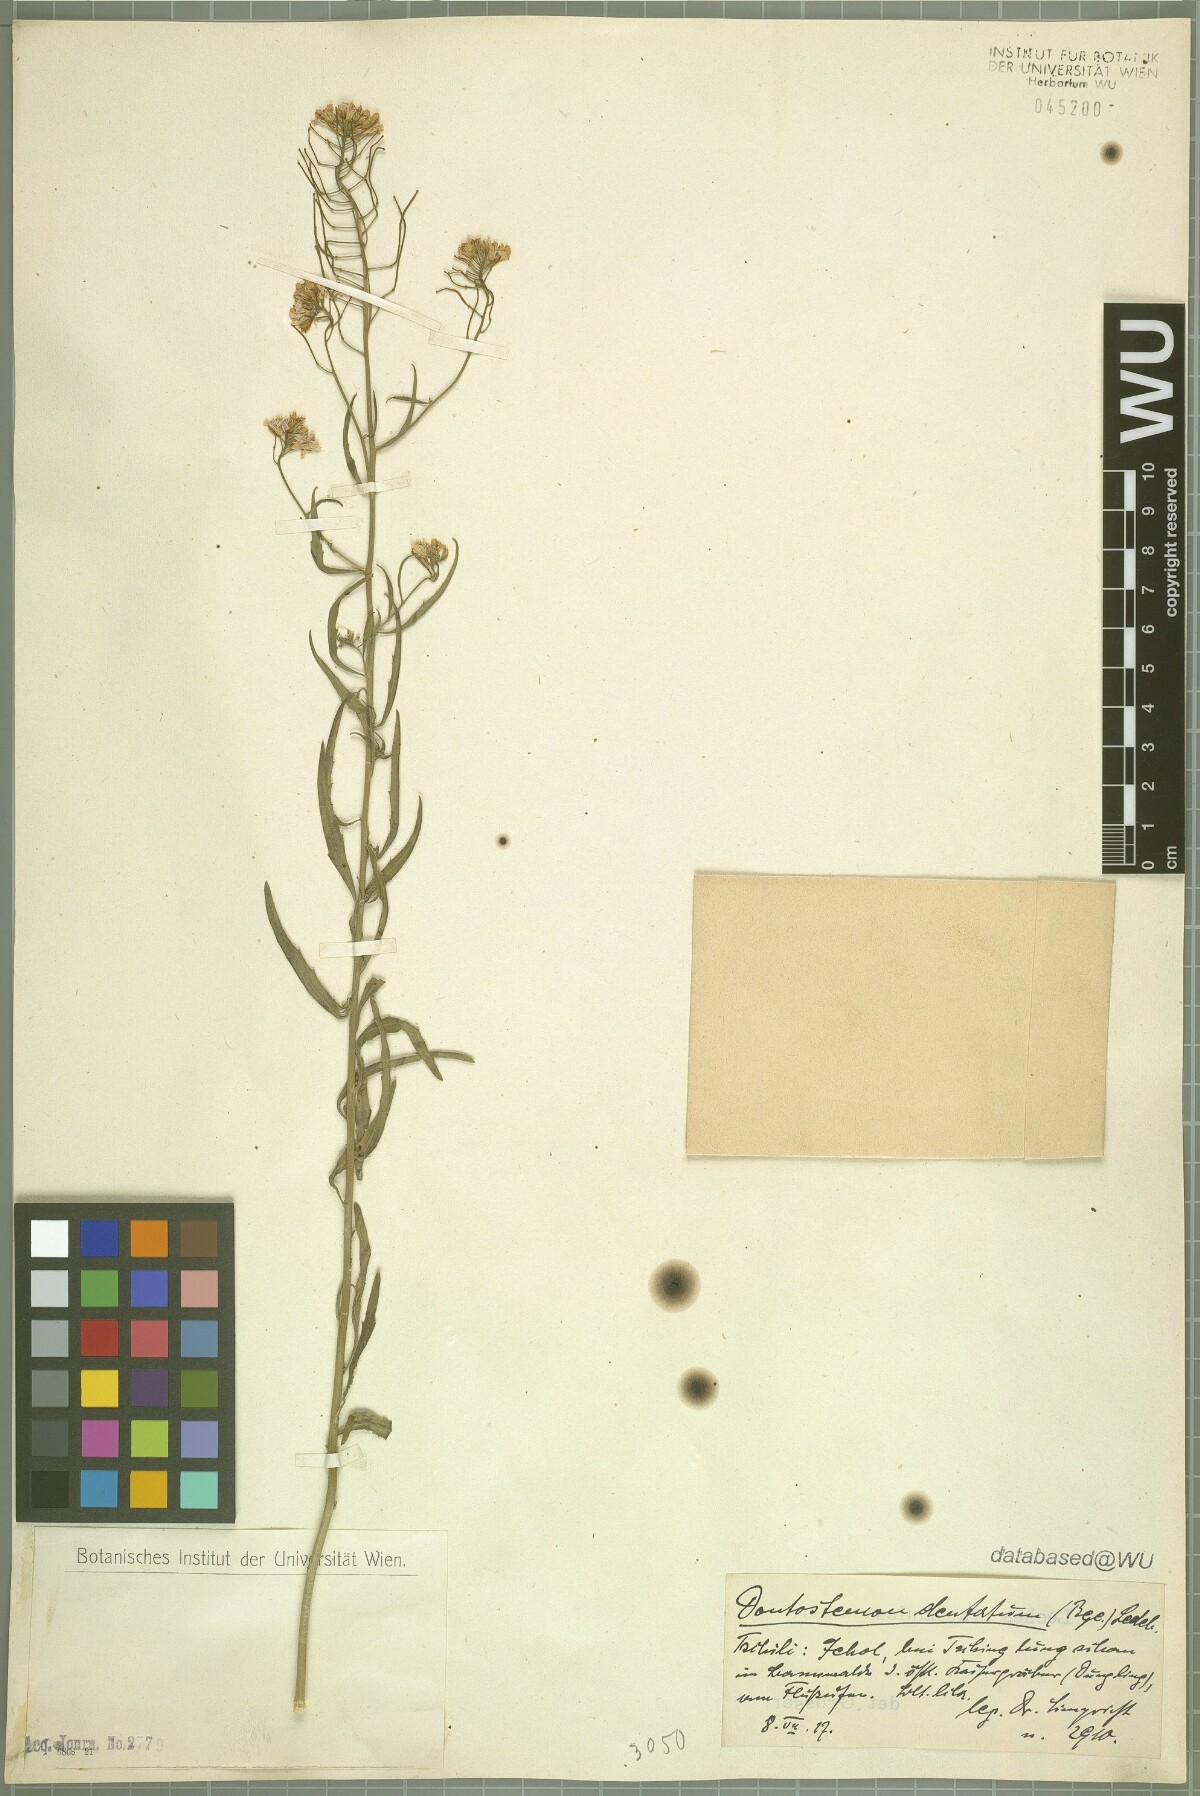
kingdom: Plantae
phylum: Tracheophyta
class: Magnoliopsida
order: Brassicales
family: Brassicaceae
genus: Dontostemon
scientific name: Dontostemon dentatus
